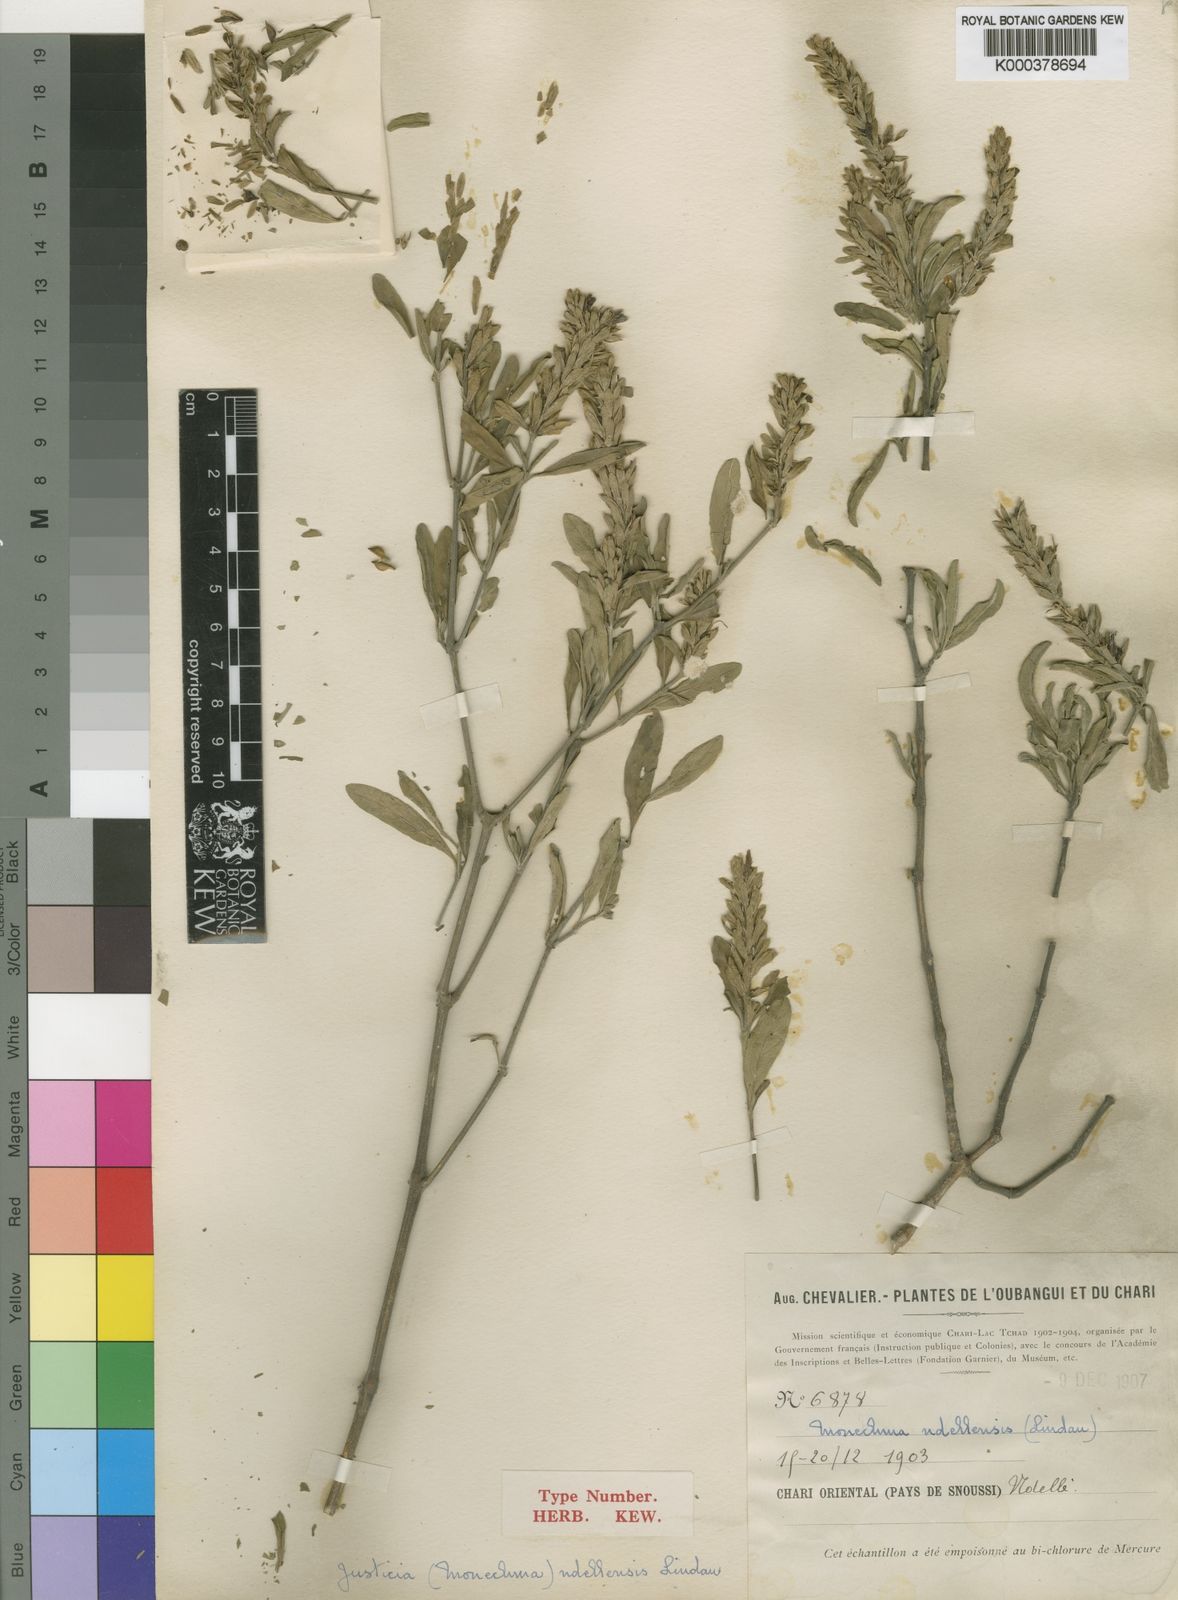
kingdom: Plantae
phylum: Tracheophyta
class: Magnoliopsida
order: Lamiales
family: Acanthaceae
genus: Monechma
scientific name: Monechma
